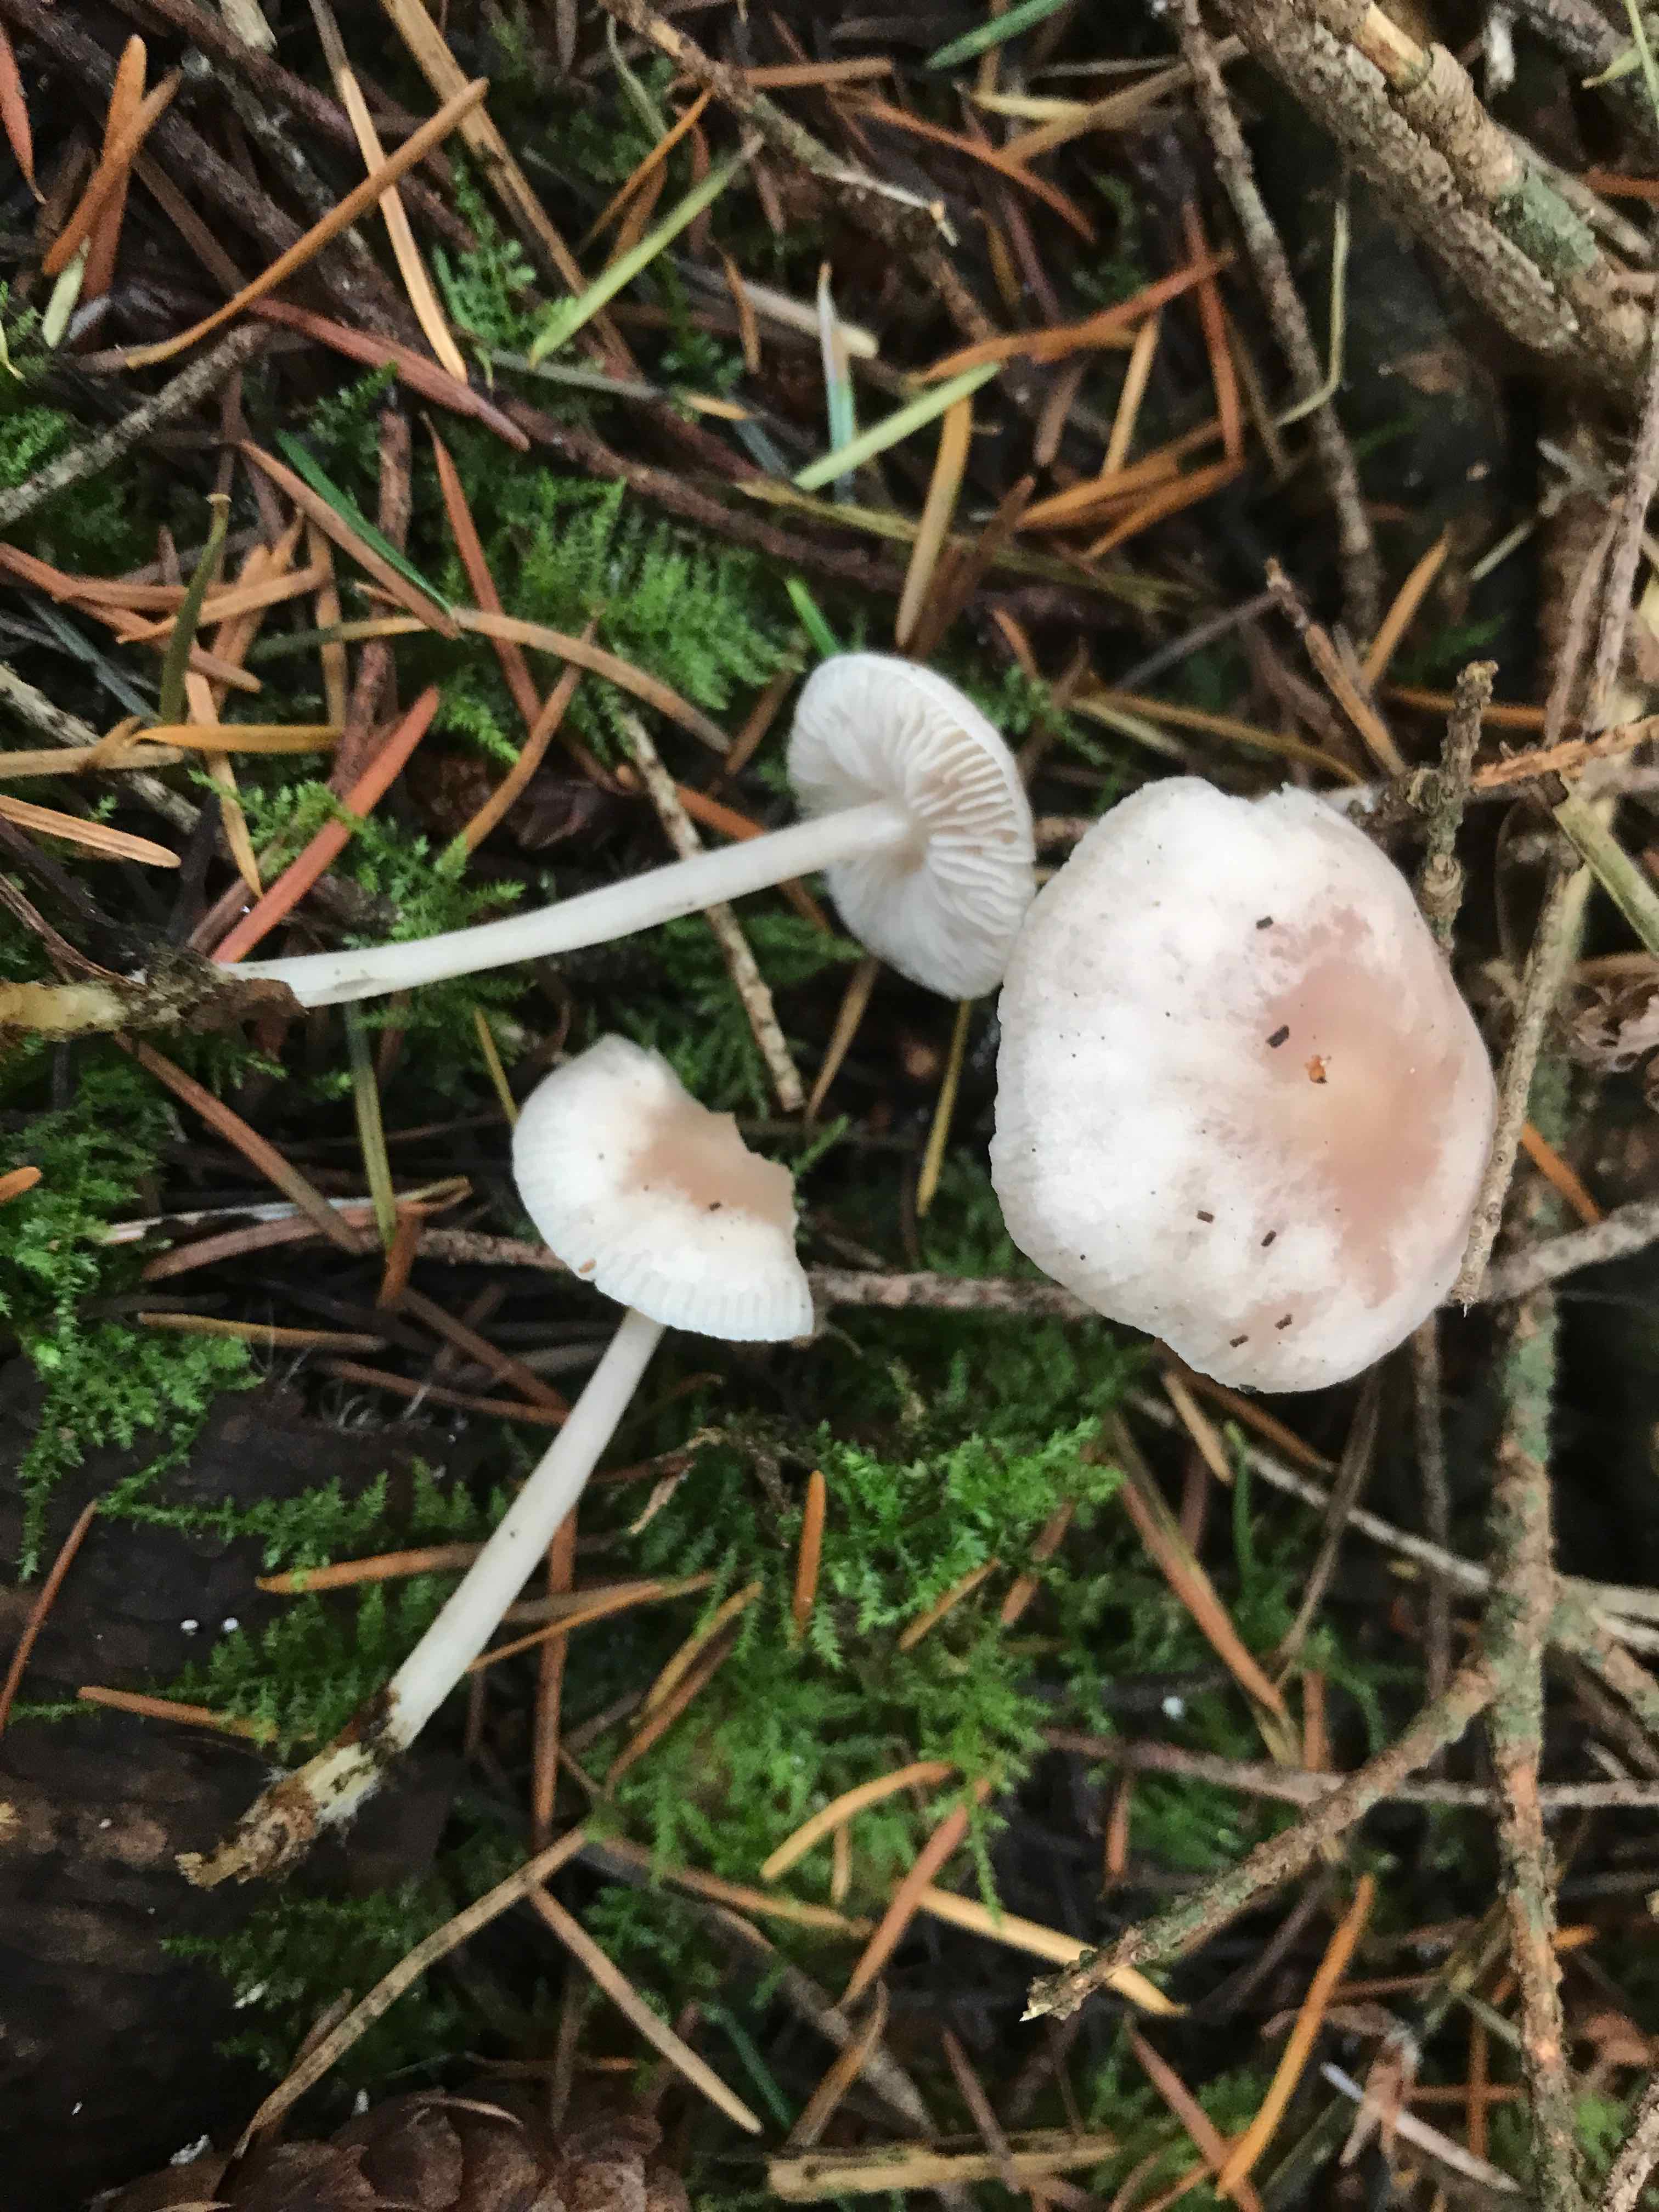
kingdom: Fungi
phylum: Basidiomycota
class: Agaricomycetes
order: Agaricales
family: Tricholomataceae
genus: Clitocybe
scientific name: Clitocybe fragrans
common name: vellugtende tragthat
